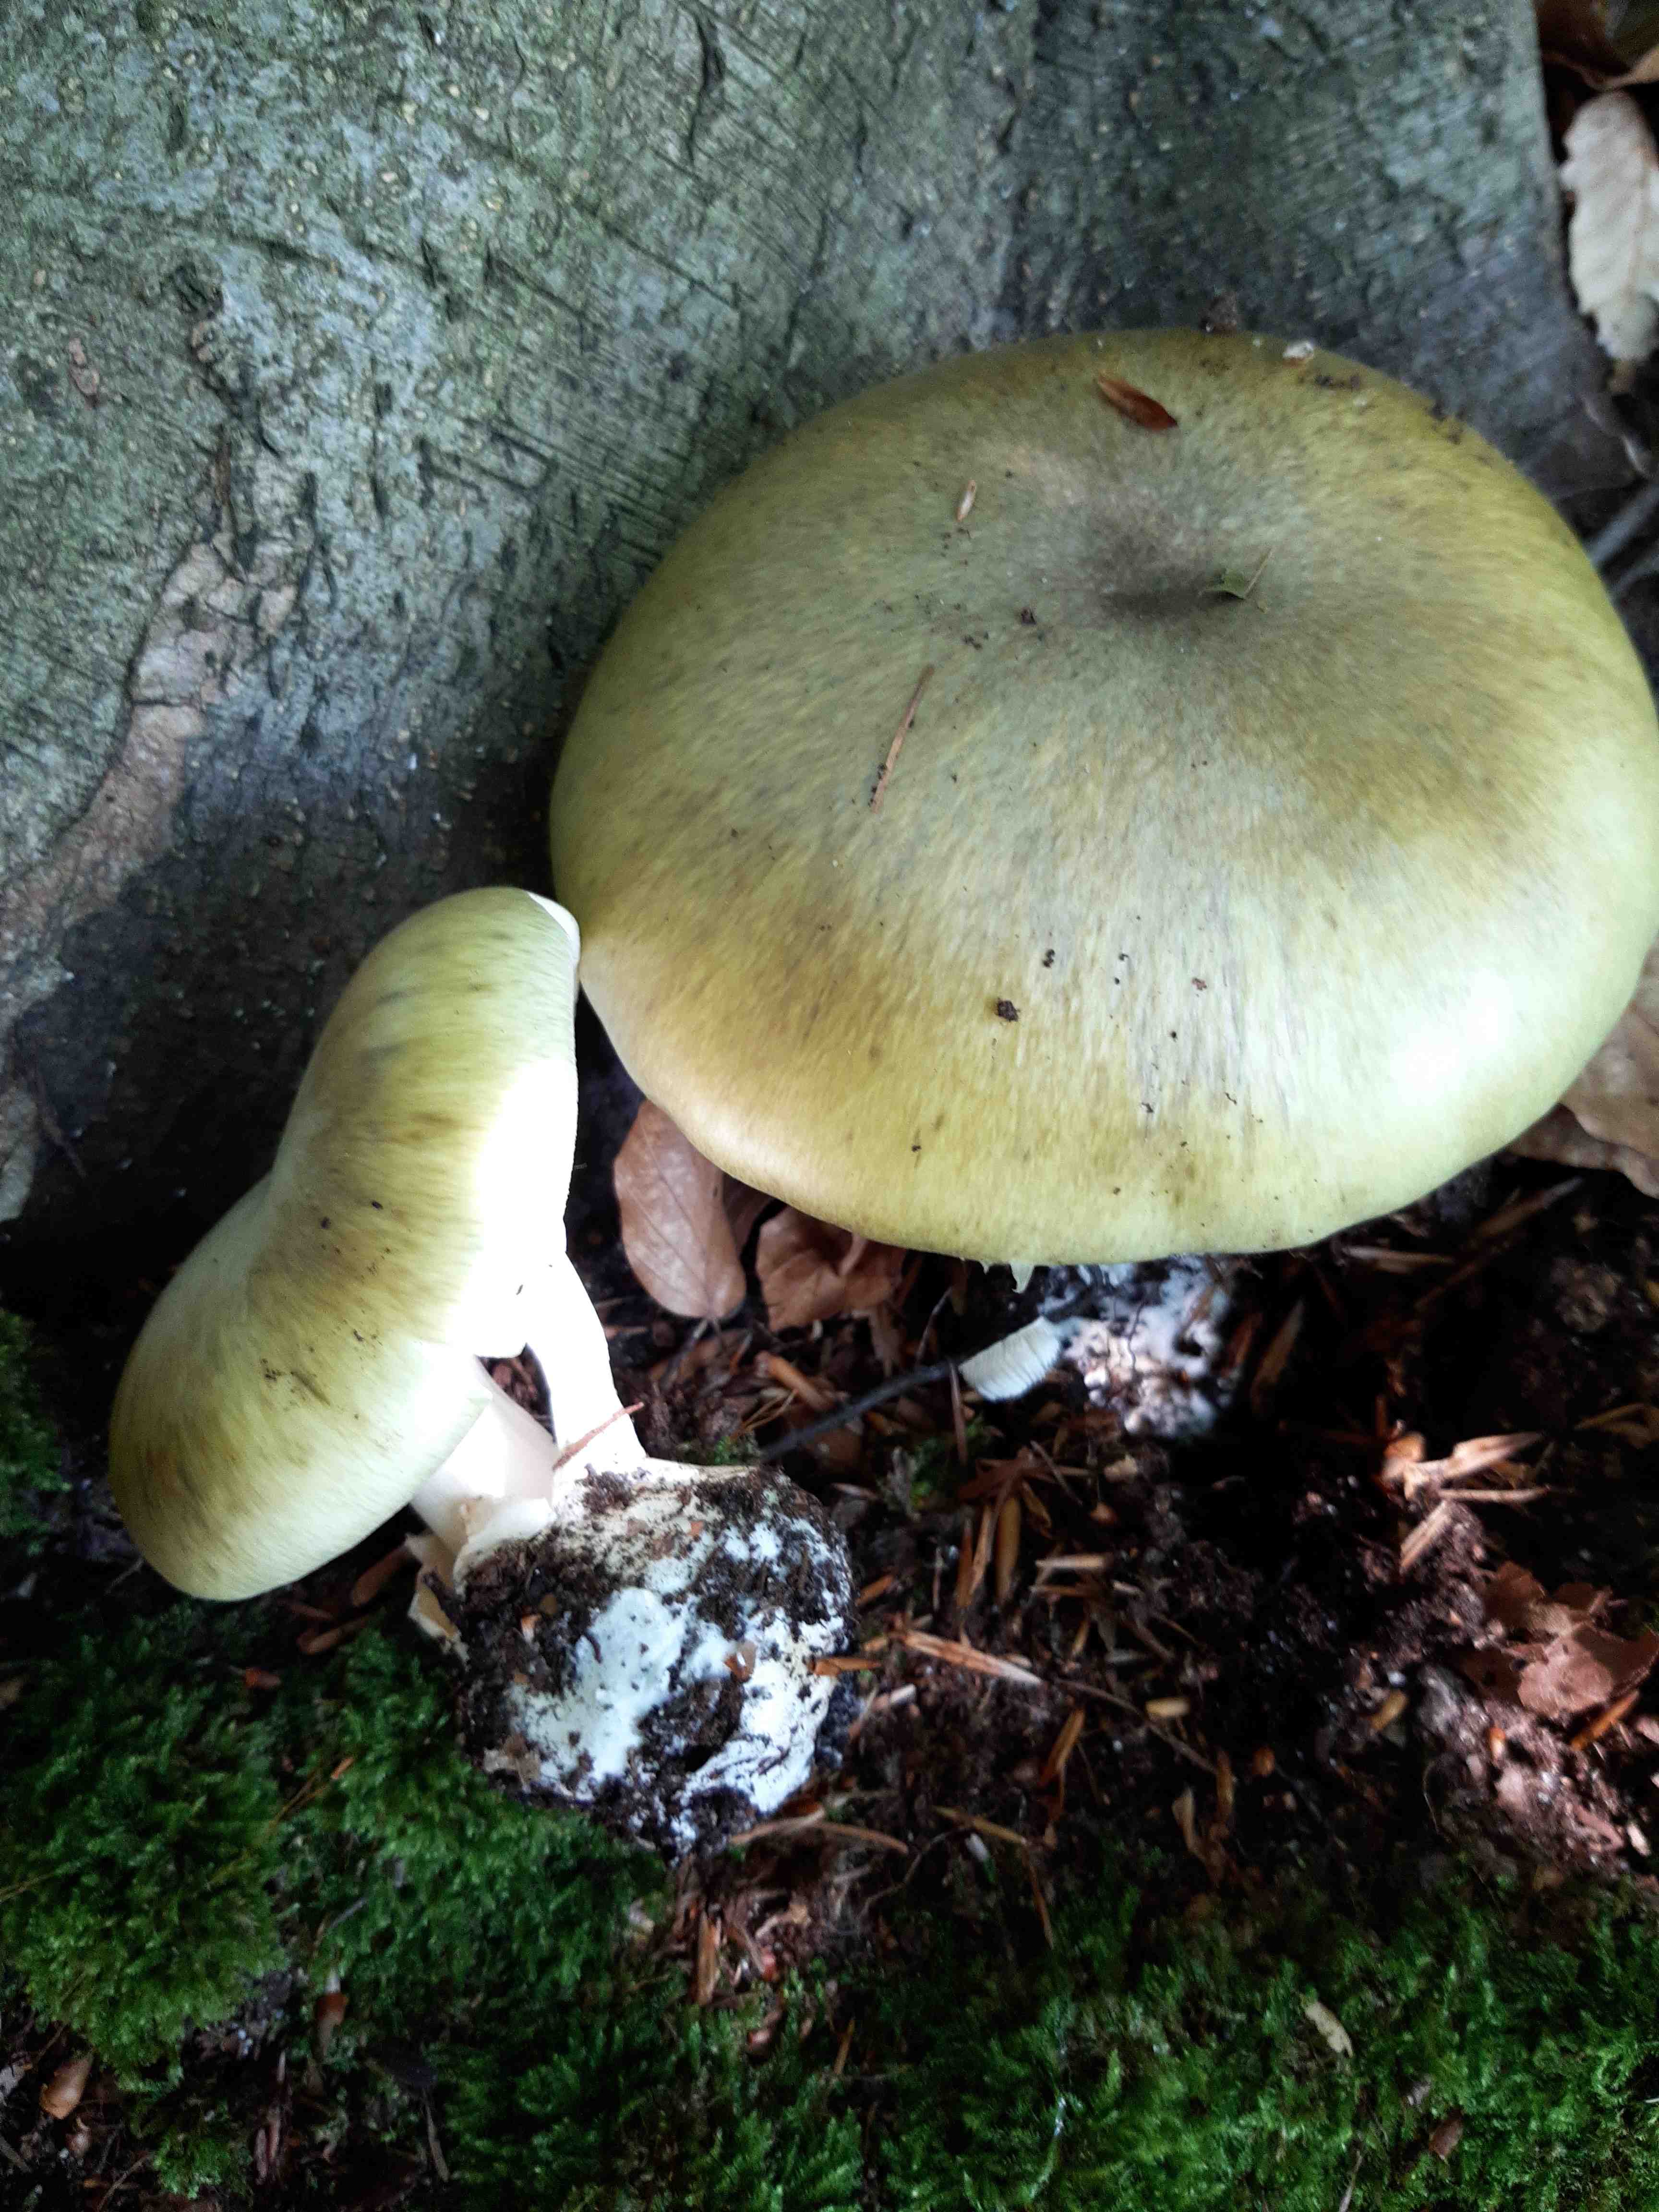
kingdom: Fungi
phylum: Basidiomycota
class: Agaricomycetes
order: Agaricales
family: Amanitaceae
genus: Amanita
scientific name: Amanita phalloides
